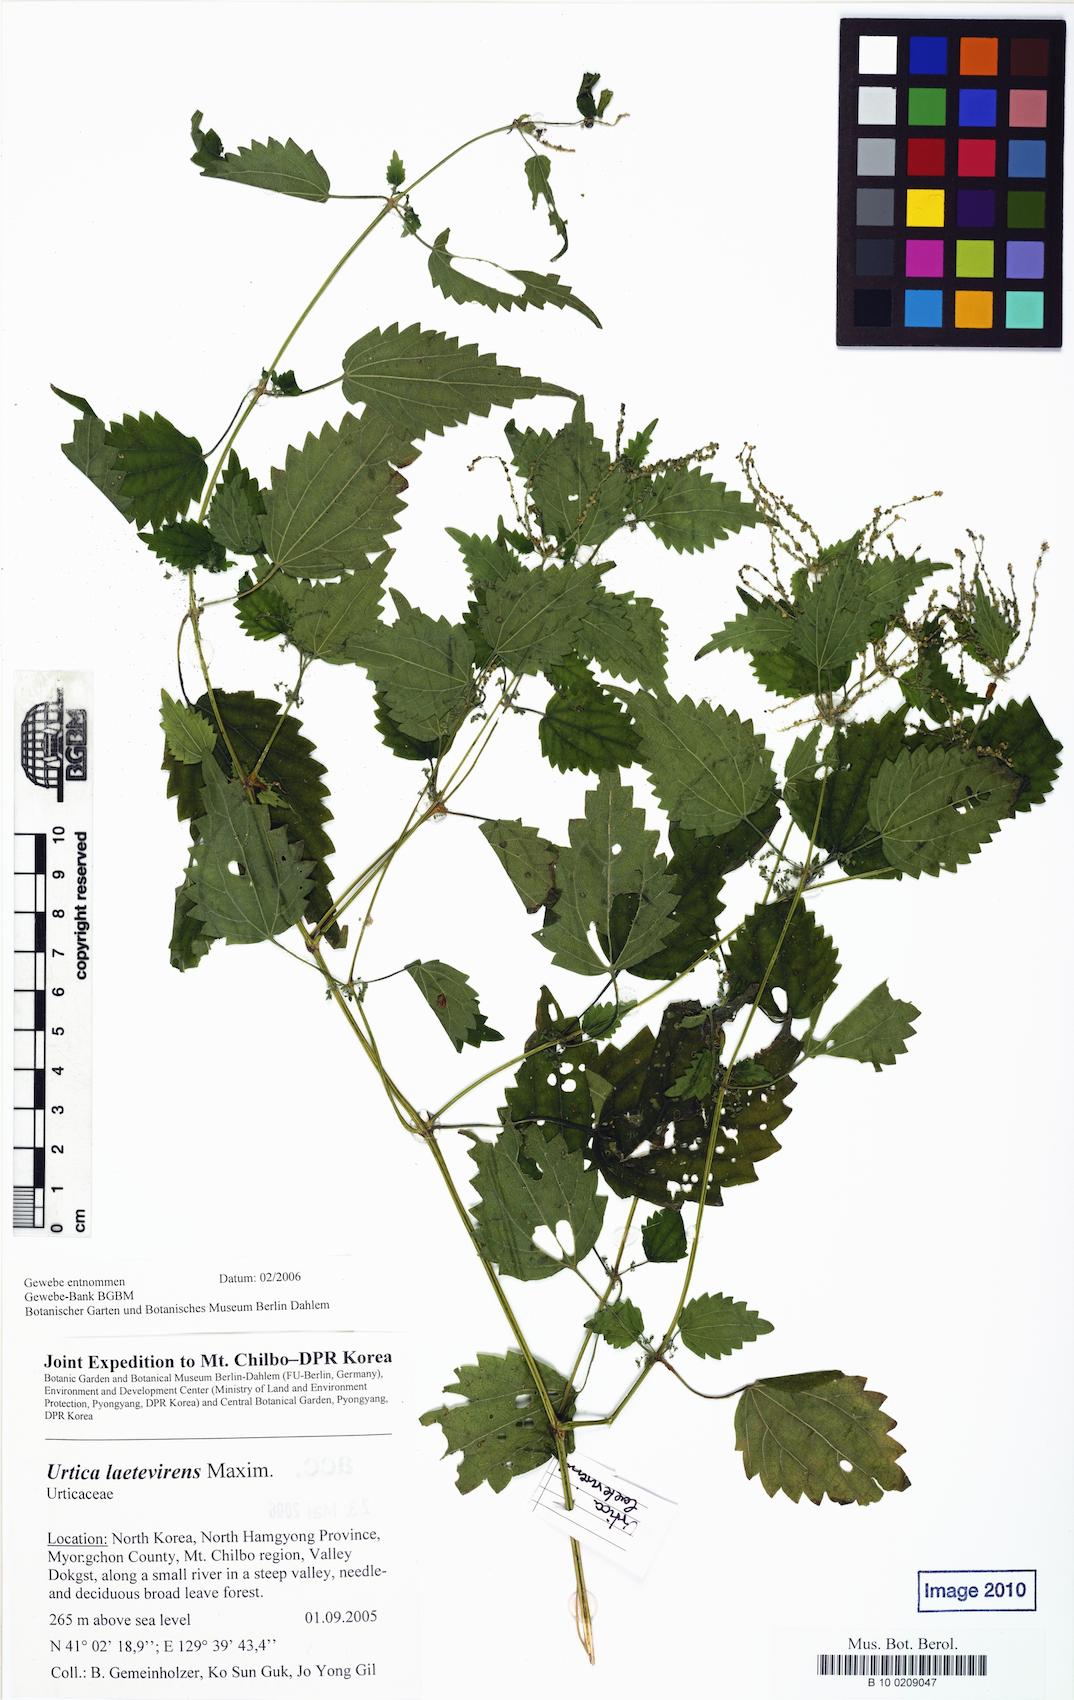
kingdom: Plantae
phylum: Tracheophyta
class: Magnoliopsida
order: Rosales
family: Urticaceae
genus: Urtica
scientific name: Urtica thunbergiana
